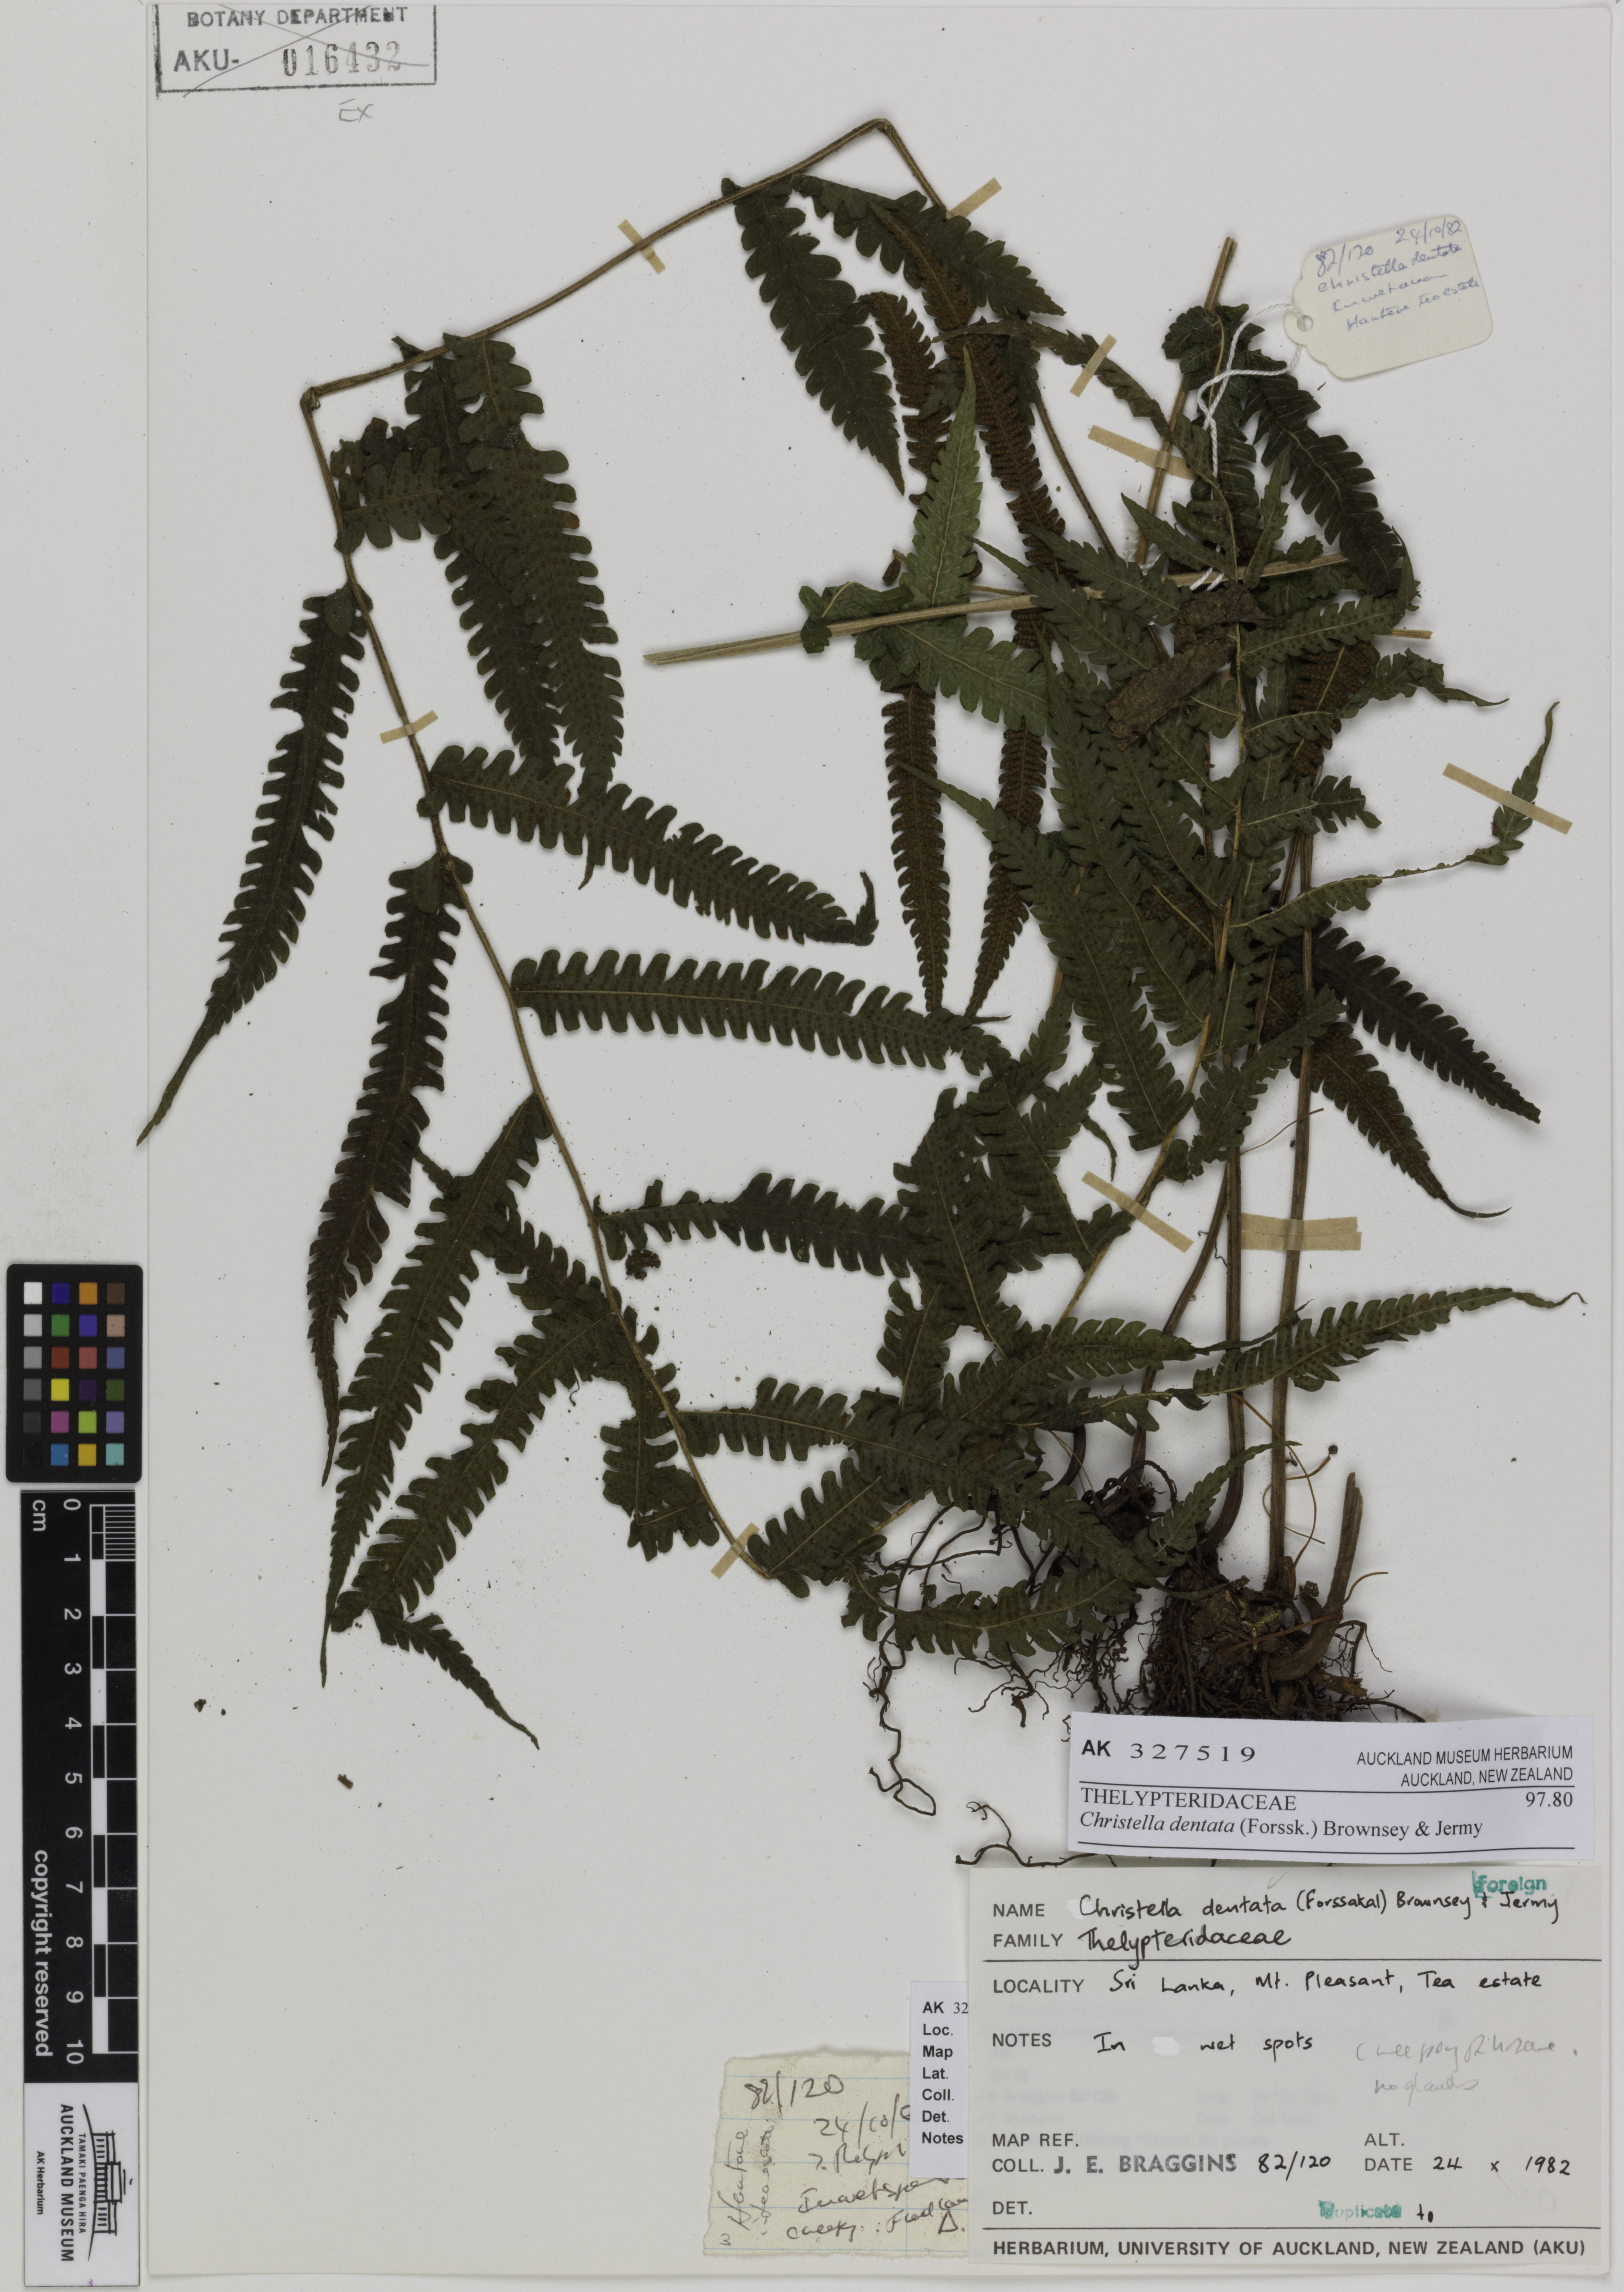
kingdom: Plantae
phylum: Tracheophyta
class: Polypodiopsida
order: Polypodiales
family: Thelypteridaceae
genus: Christella
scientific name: Christella dentata
